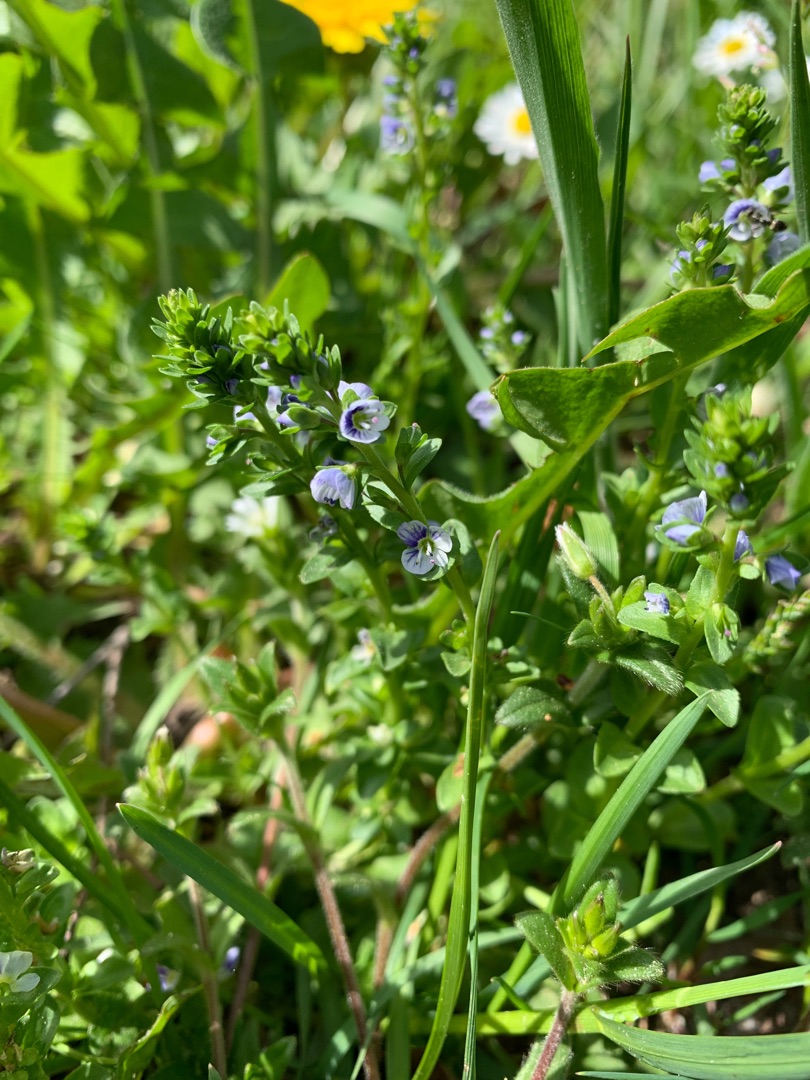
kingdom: Plantae
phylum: Tracheophyta
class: Magnoliopsida
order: Lamiales
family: Plantaginaceae
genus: Veronica
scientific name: Veronica serpyllifolia
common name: Glat ærenpris
